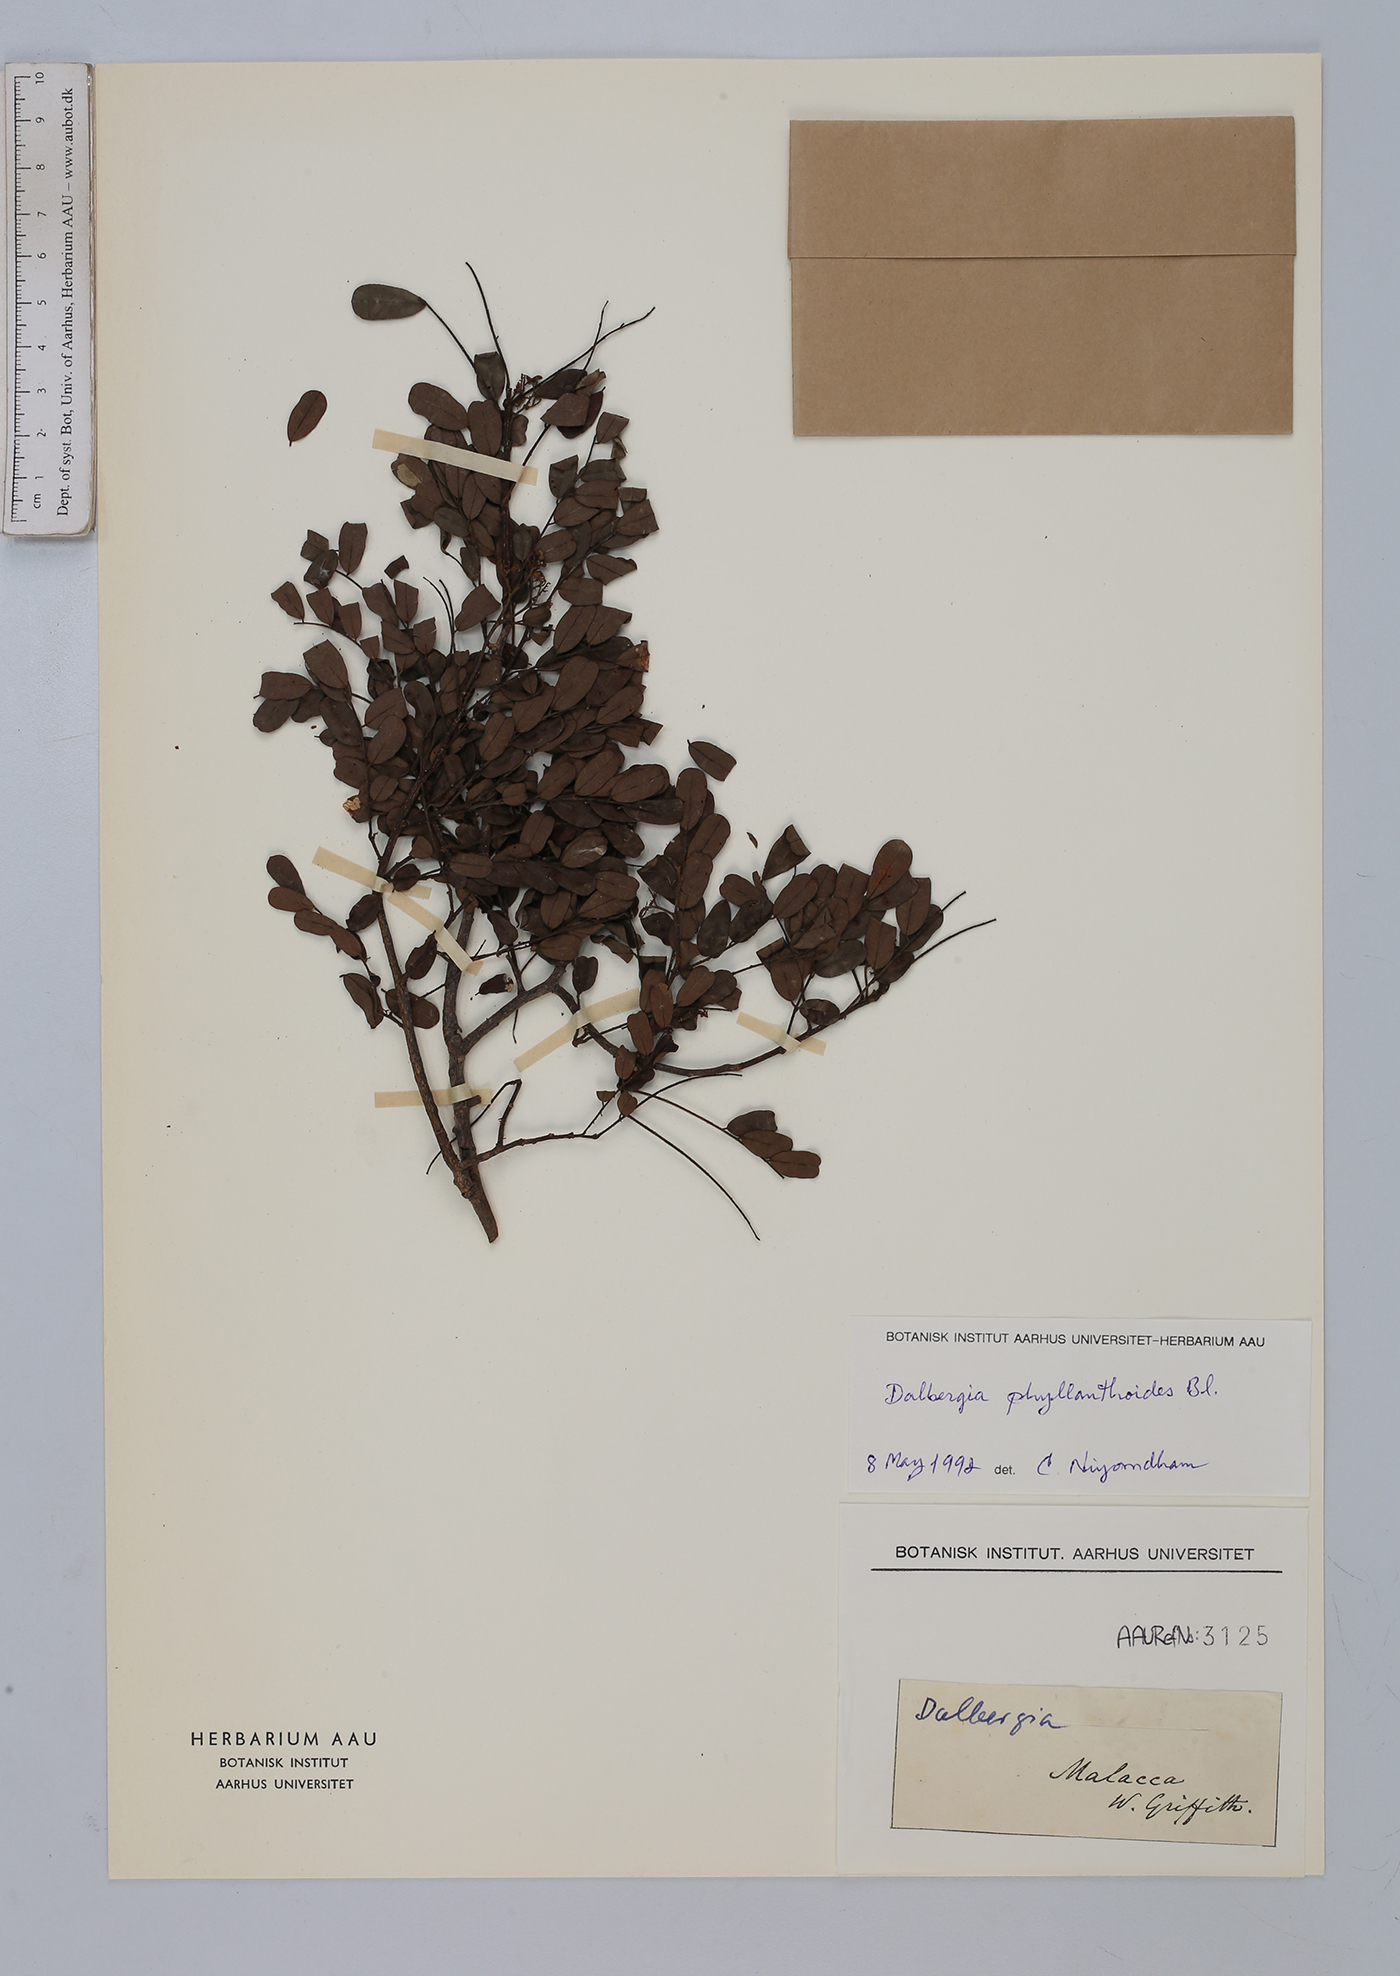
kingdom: Plantae
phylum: Tracheophyta
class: Magnoliopsida
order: Fabales
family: Fabaceae
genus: Dalbergia
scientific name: Dalbergia junghuhnii
